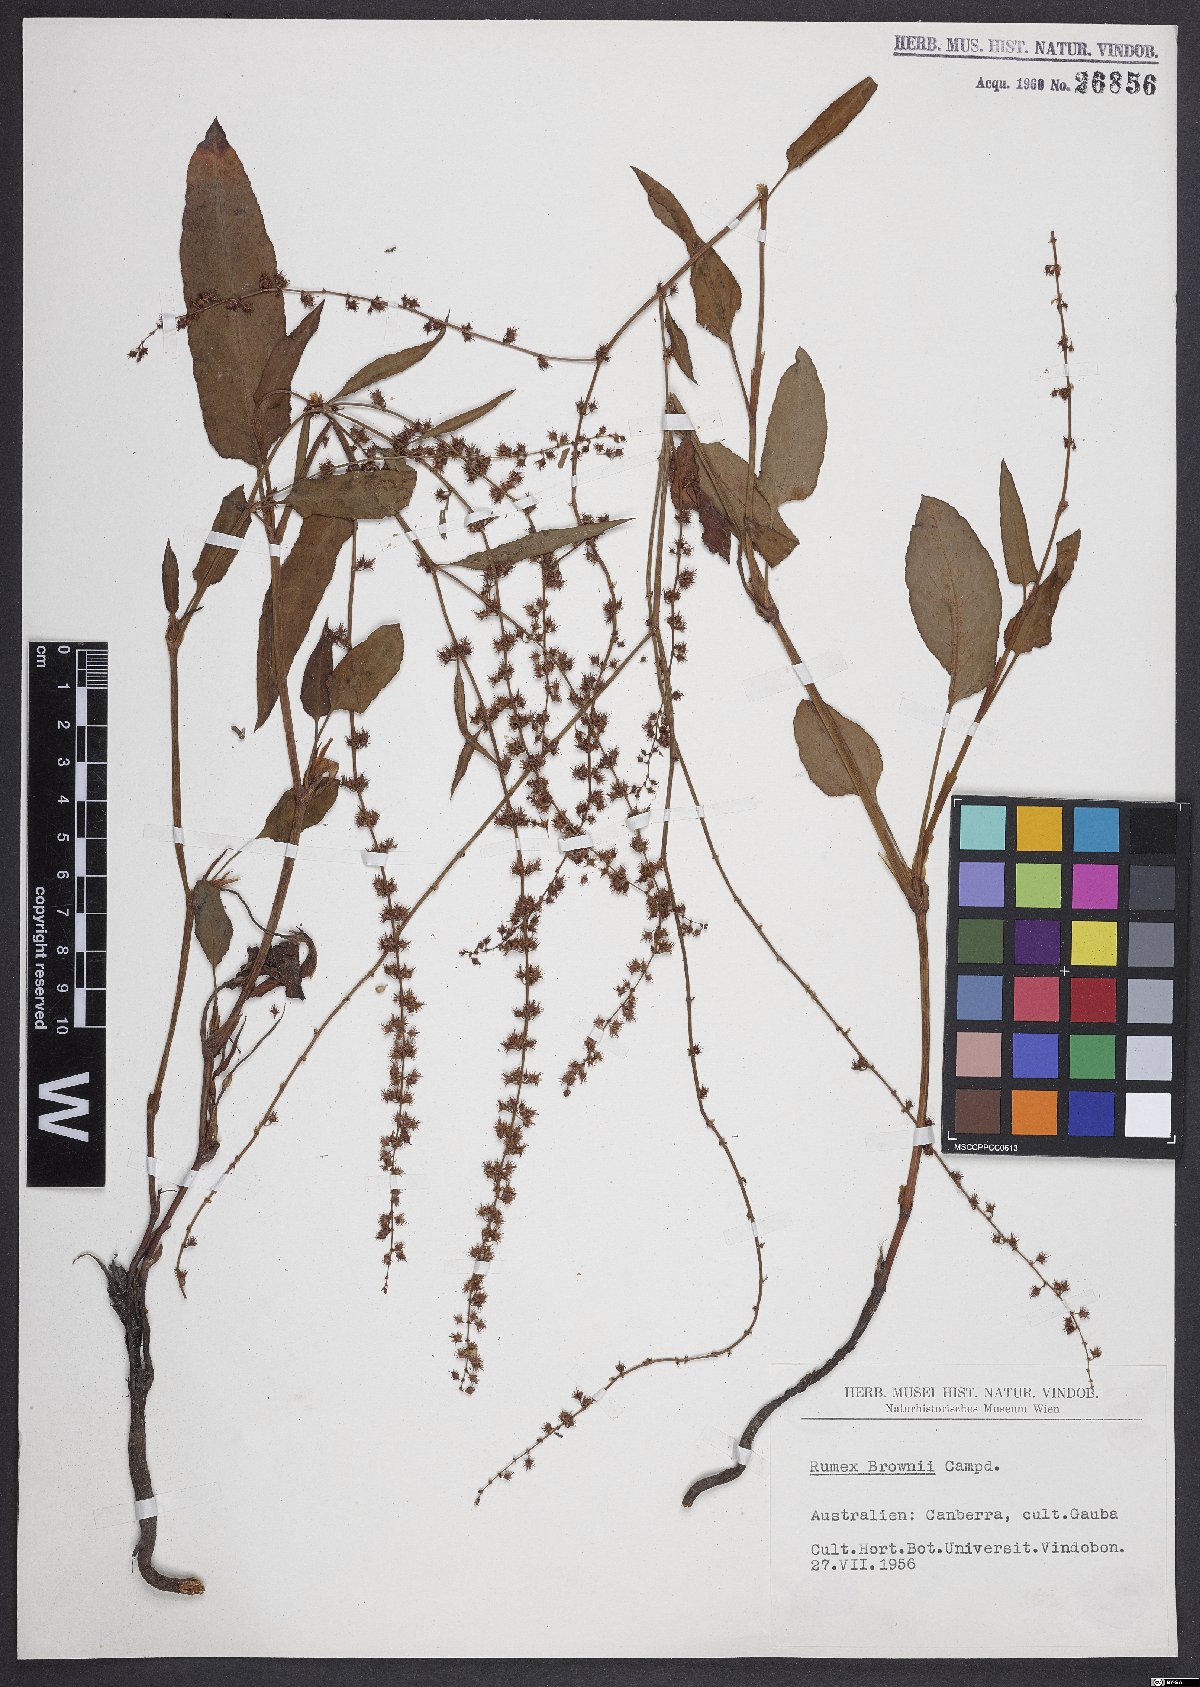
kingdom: Plantae
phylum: Tracheophyta
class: Magnoliopsida
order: Caryophyllales
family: Polygonaceae
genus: Rumex
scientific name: Rumex brownii
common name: Hooked dock
